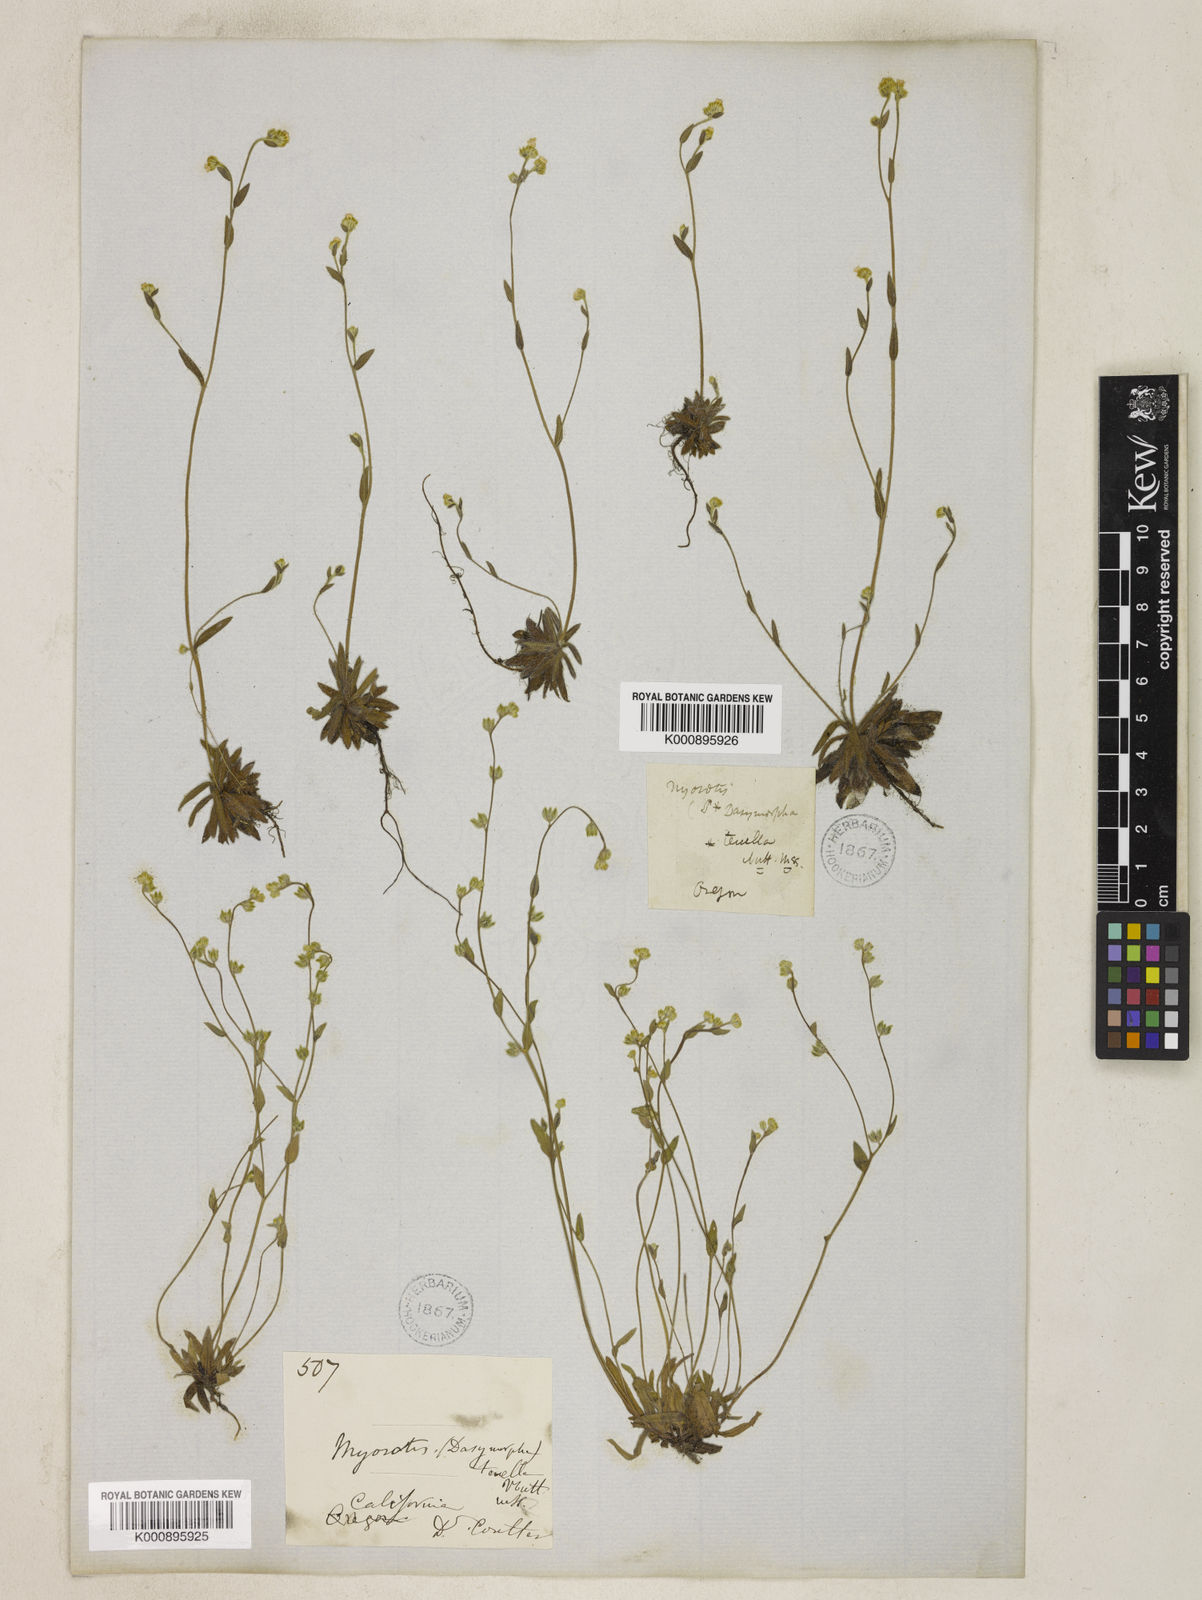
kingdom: Plantae
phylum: Tracheophyta
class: Magnoliopsida
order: Boraginales
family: Boraginaceae
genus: Plagiobothrys
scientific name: Plagiobothrys tenellus
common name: Pacific popcornflower
